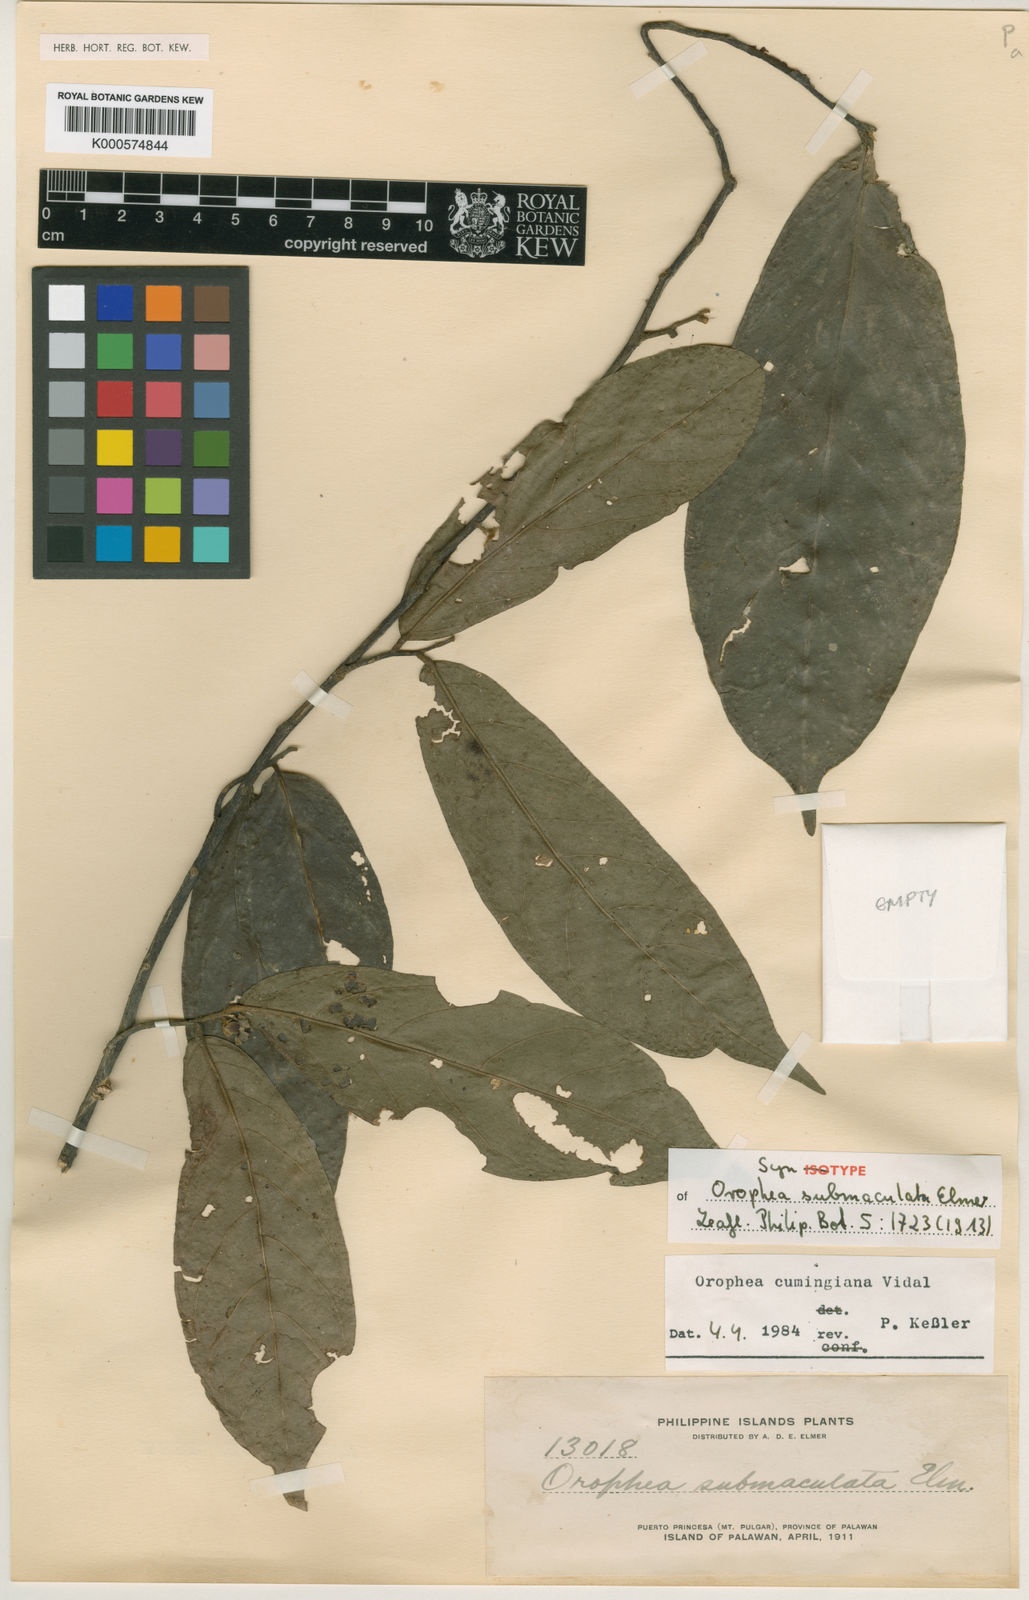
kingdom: Plantae
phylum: Tracheophyta
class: Magnoliopsida
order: Magnoliales
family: Annonaceae
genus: Orophea
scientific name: Orophea cumingiana
